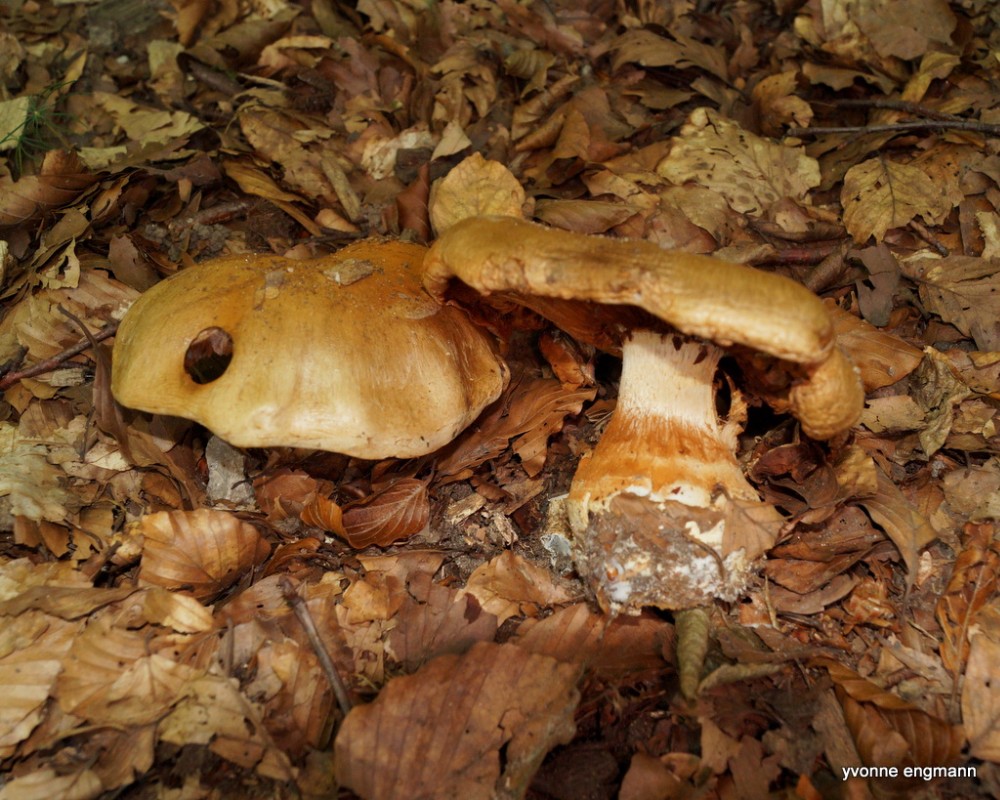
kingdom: Fungi
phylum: Basidiomycota
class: Agaricomycetes
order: Agaricales
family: Cortinariaceae
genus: Cortinarius
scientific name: Cortinarius anserinus
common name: bøge-slørhat
